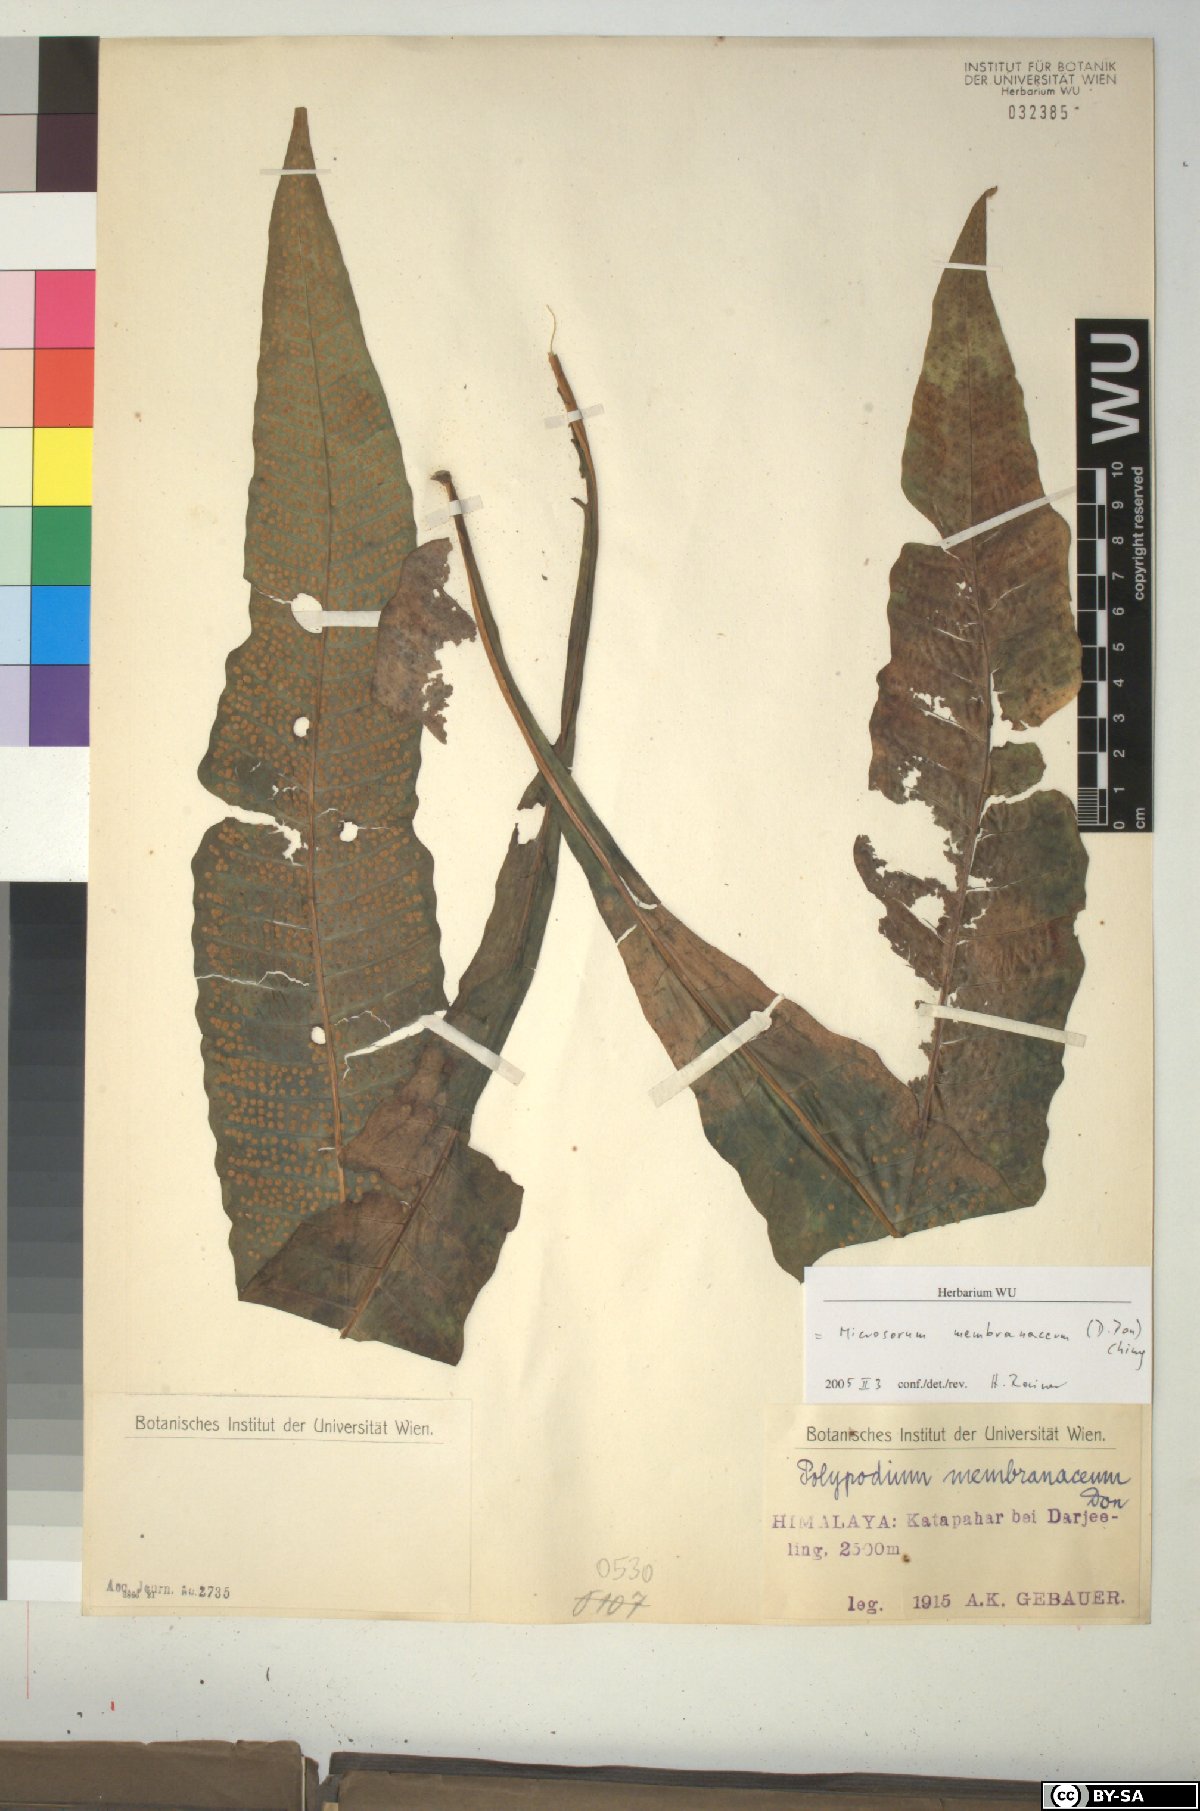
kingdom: Plantae
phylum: Tracheophyta
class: Polypodiopsida
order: Polypodiales
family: Polypodiaceae
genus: Bosmania
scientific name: Bosmania membranacea
